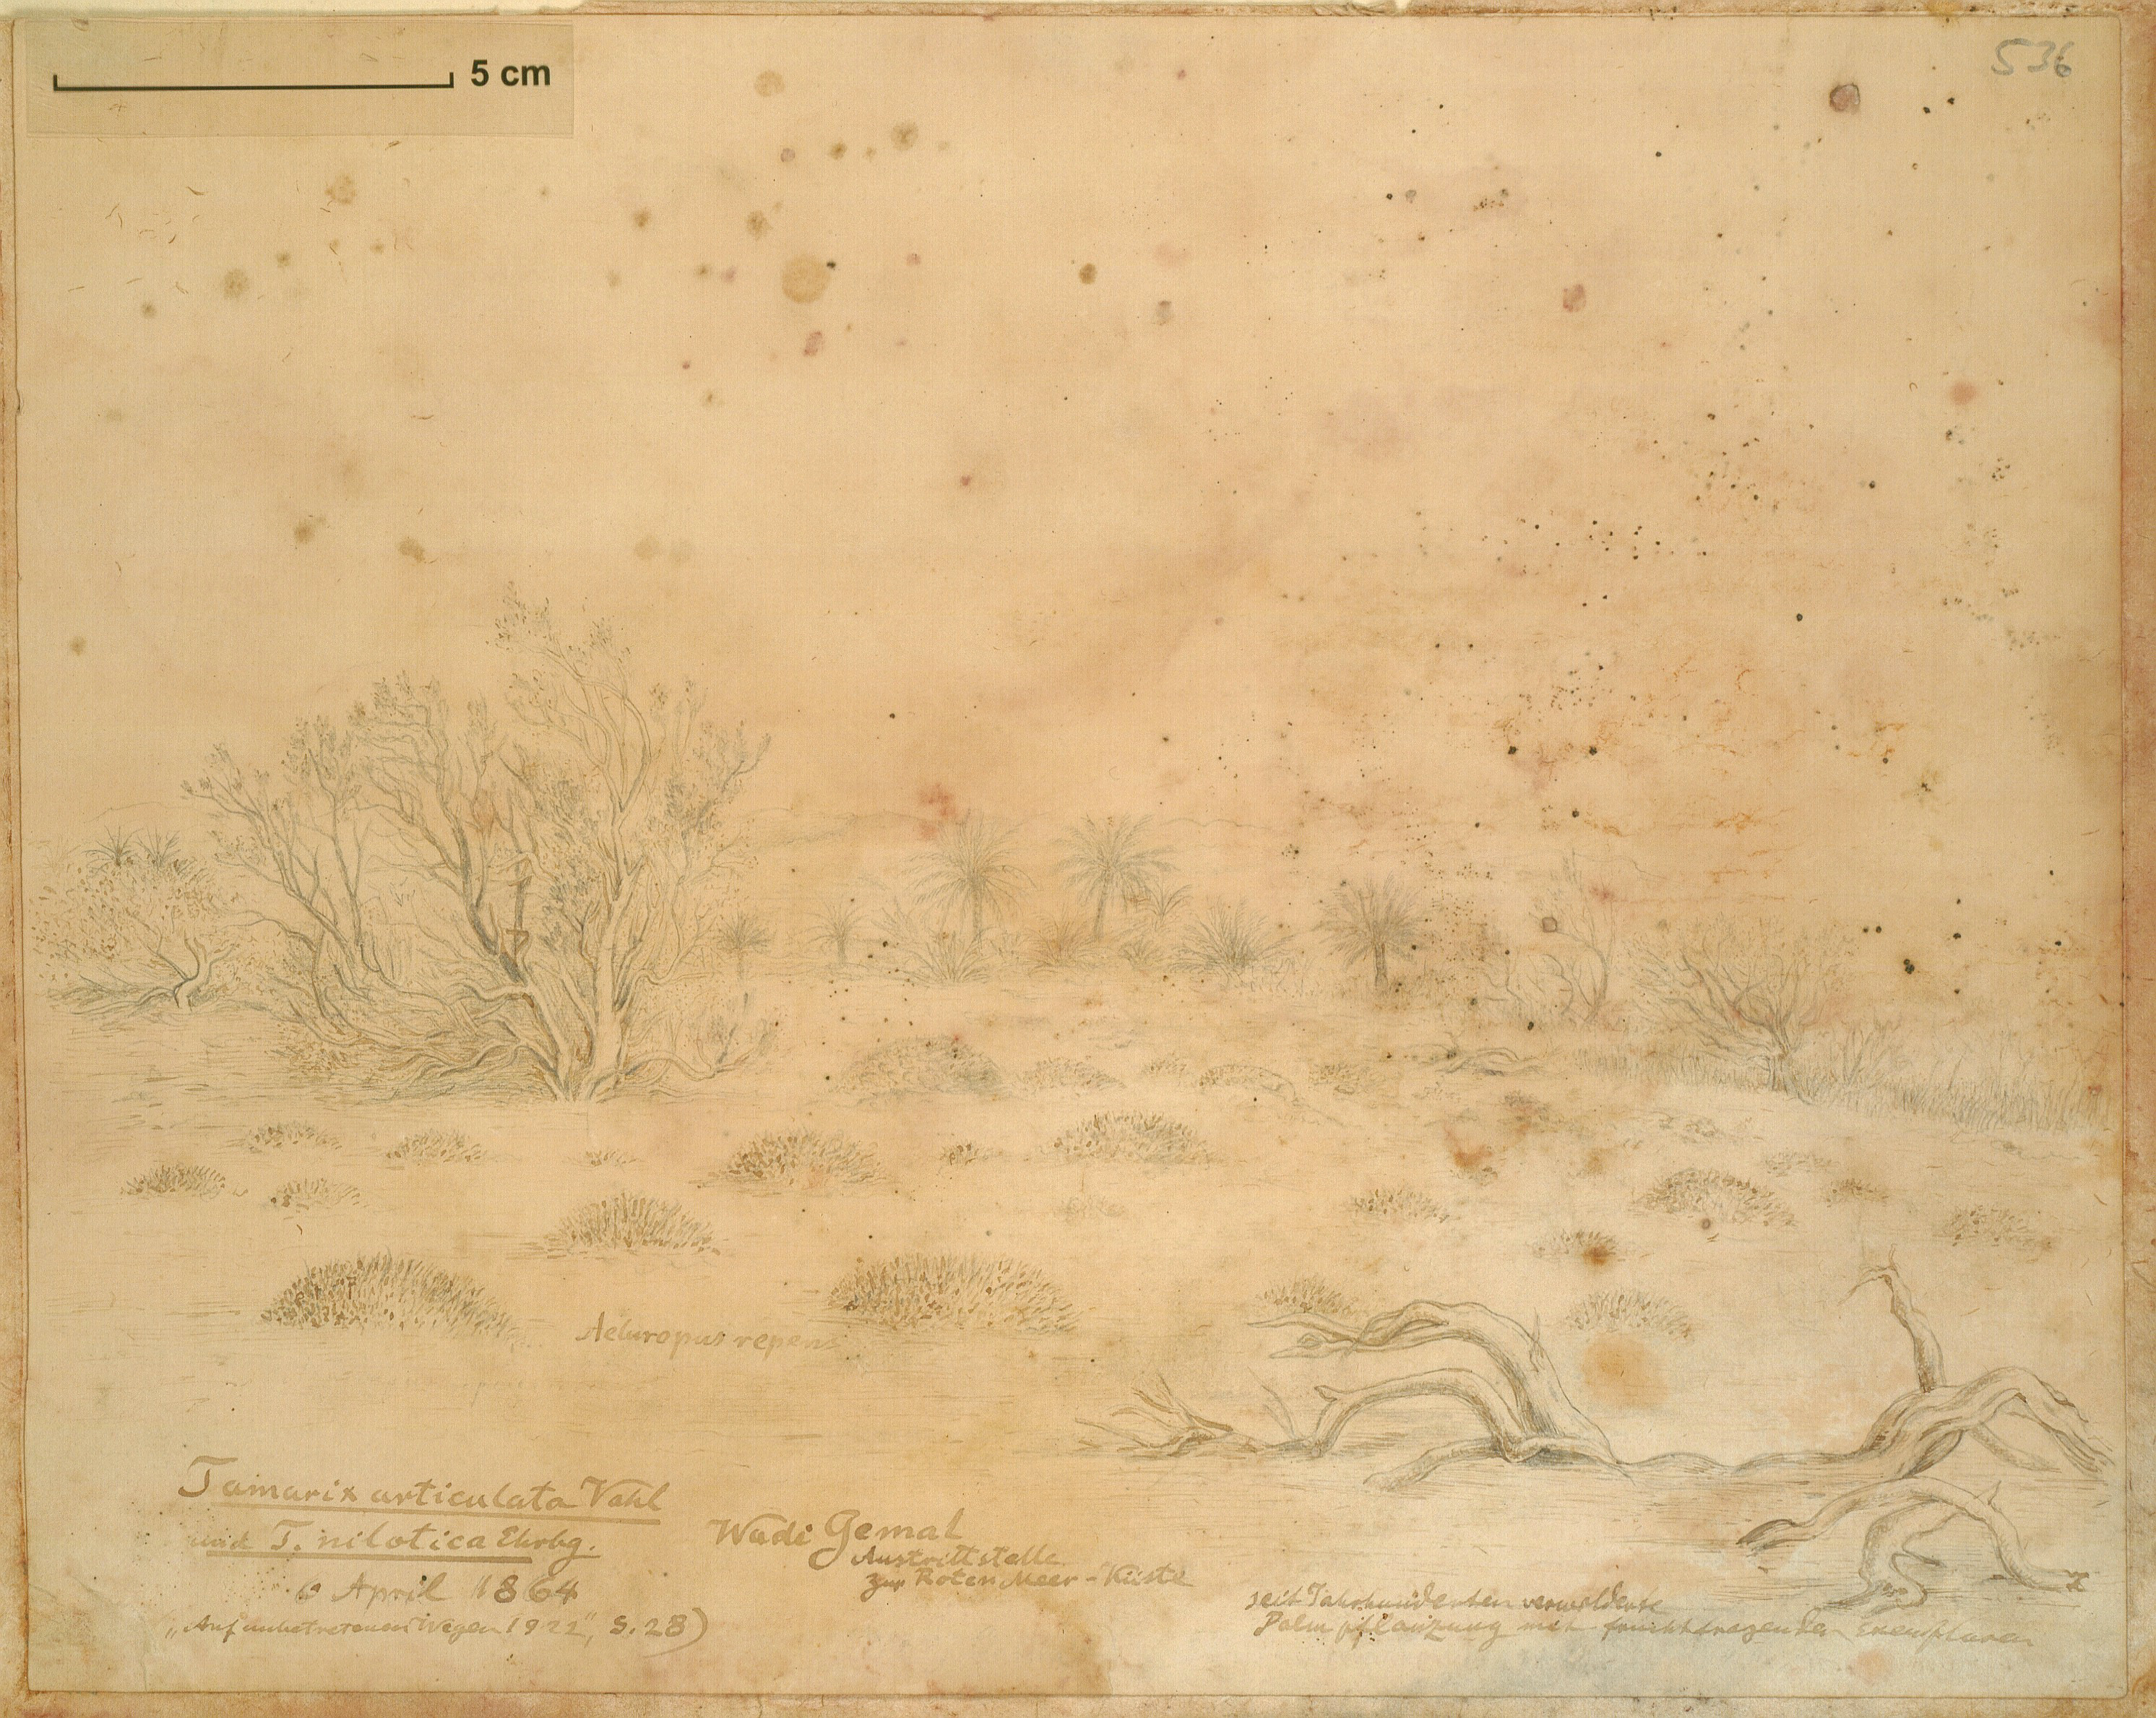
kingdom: Plantae
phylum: Tracheophyta
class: Magnoliopsida
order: Caryophyllales
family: Tamaricaceae
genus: Tamarix
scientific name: Tamarix aphylla
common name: Athel tamarisk
